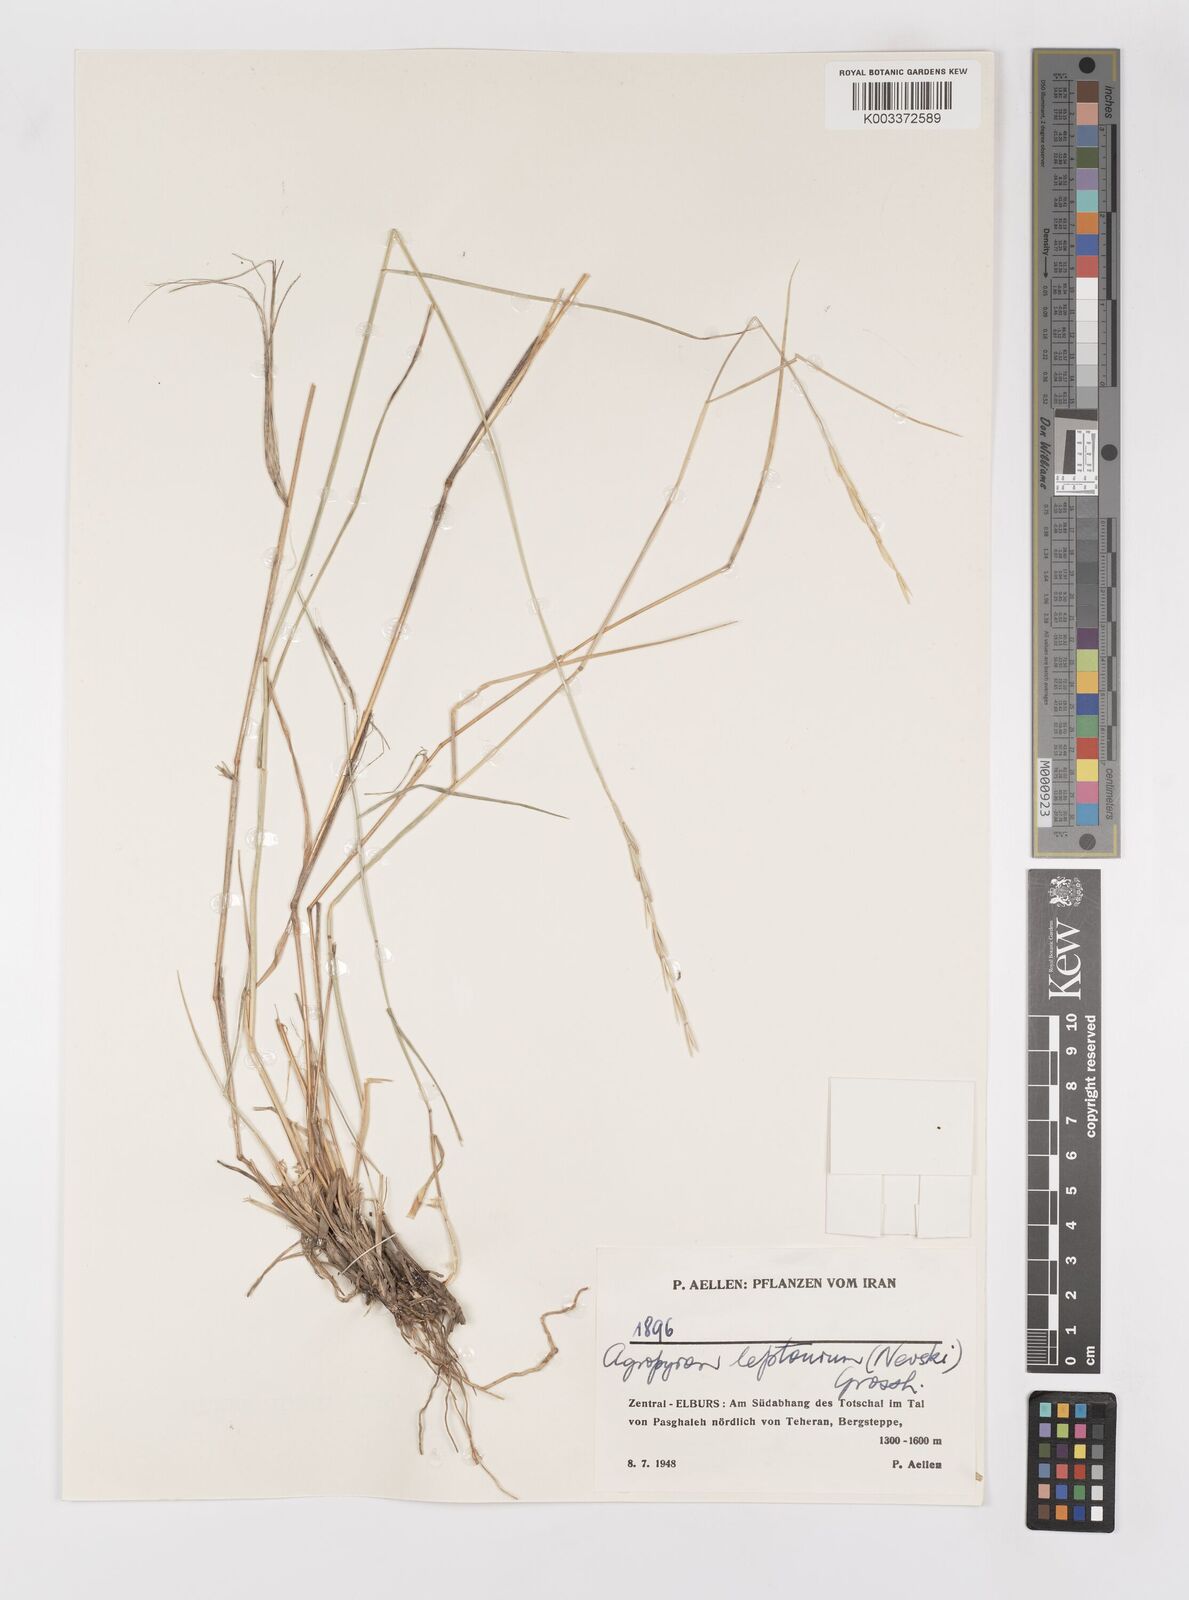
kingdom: Plantae
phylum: Tracheophyta
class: Liliopsida
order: Poales
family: Poaceae
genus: Elymus
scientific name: Elymus transhyrcanus
